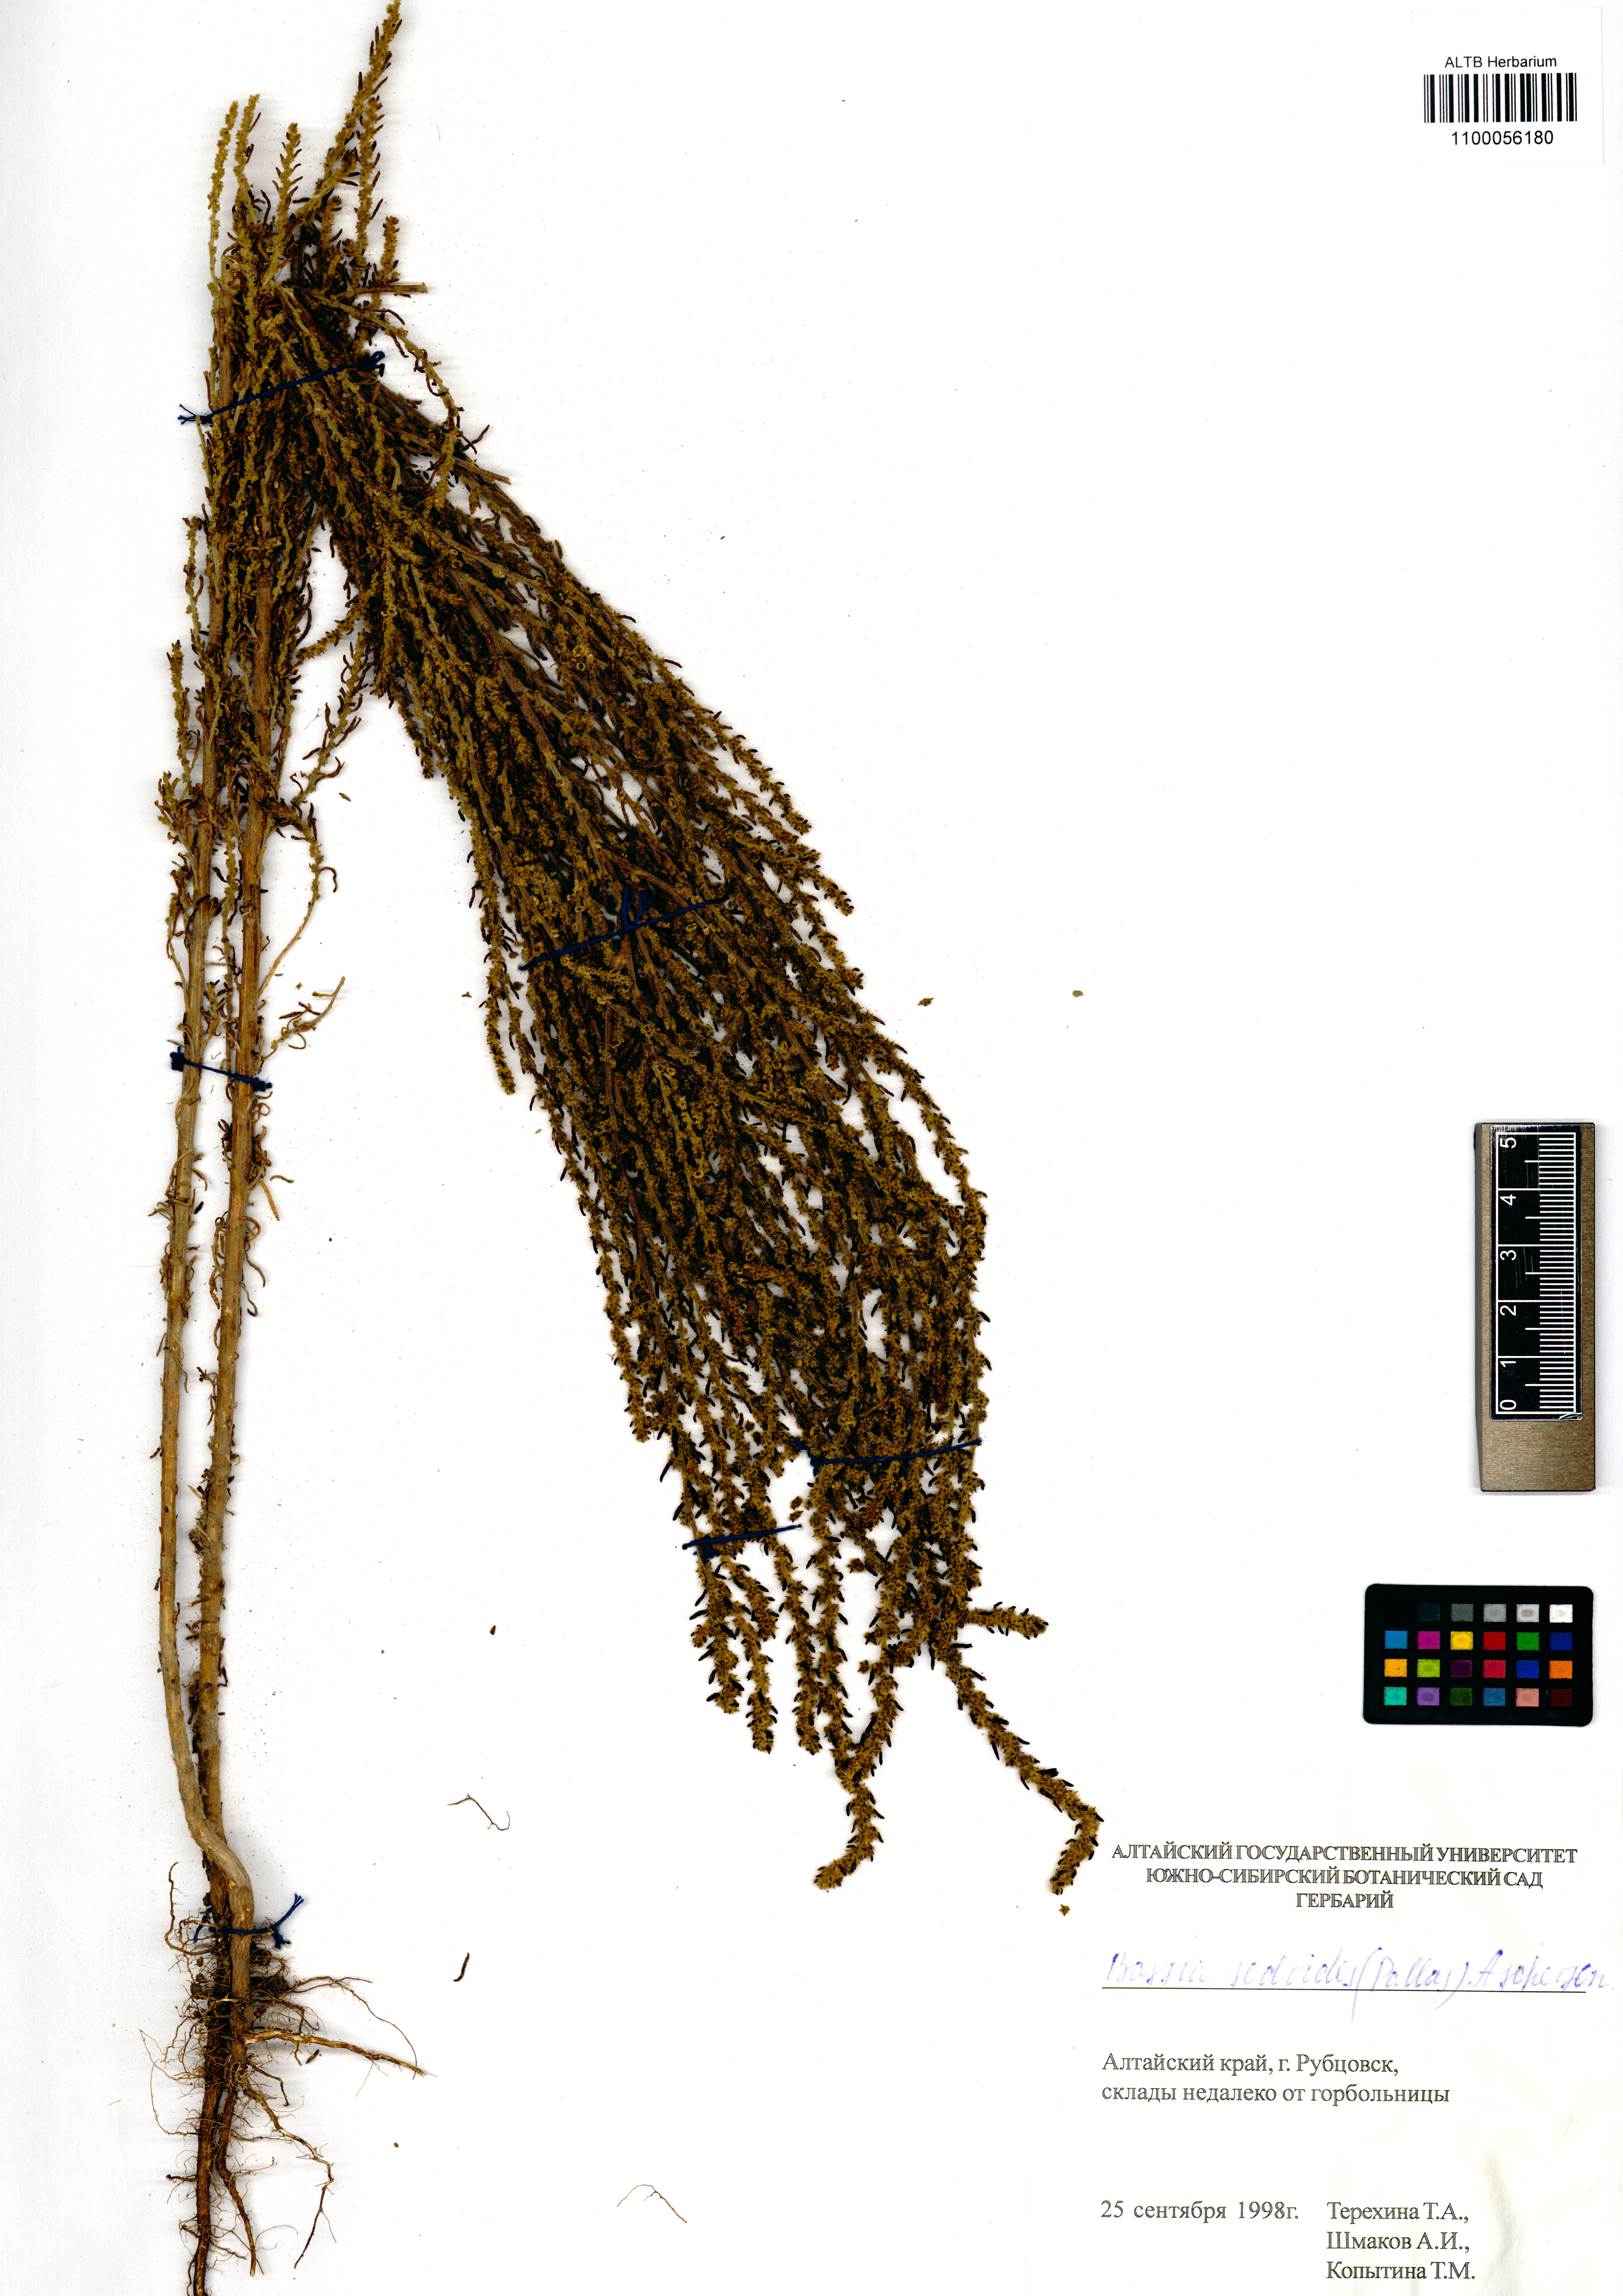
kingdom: Plantae
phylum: Tracheophyta
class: Magnoliopsida
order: Caryophyllales
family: Amaranthaceae
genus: Sedobassia
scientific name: Sedobassia sedoides
